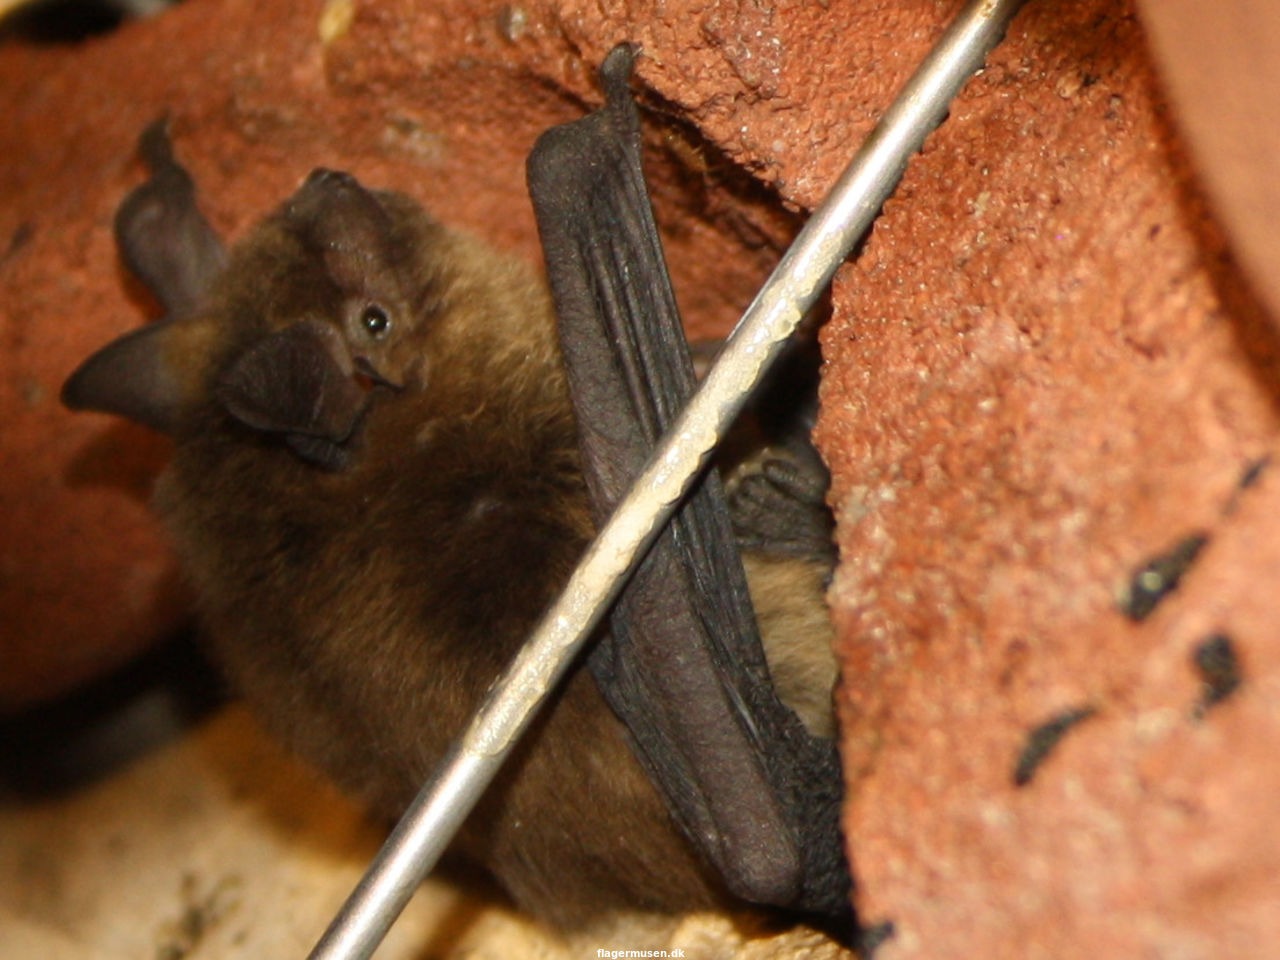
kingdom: Animalia
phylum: Chordata
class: Mammalia
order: Chiroptera
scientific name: Chiroptera
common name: Flagermus
